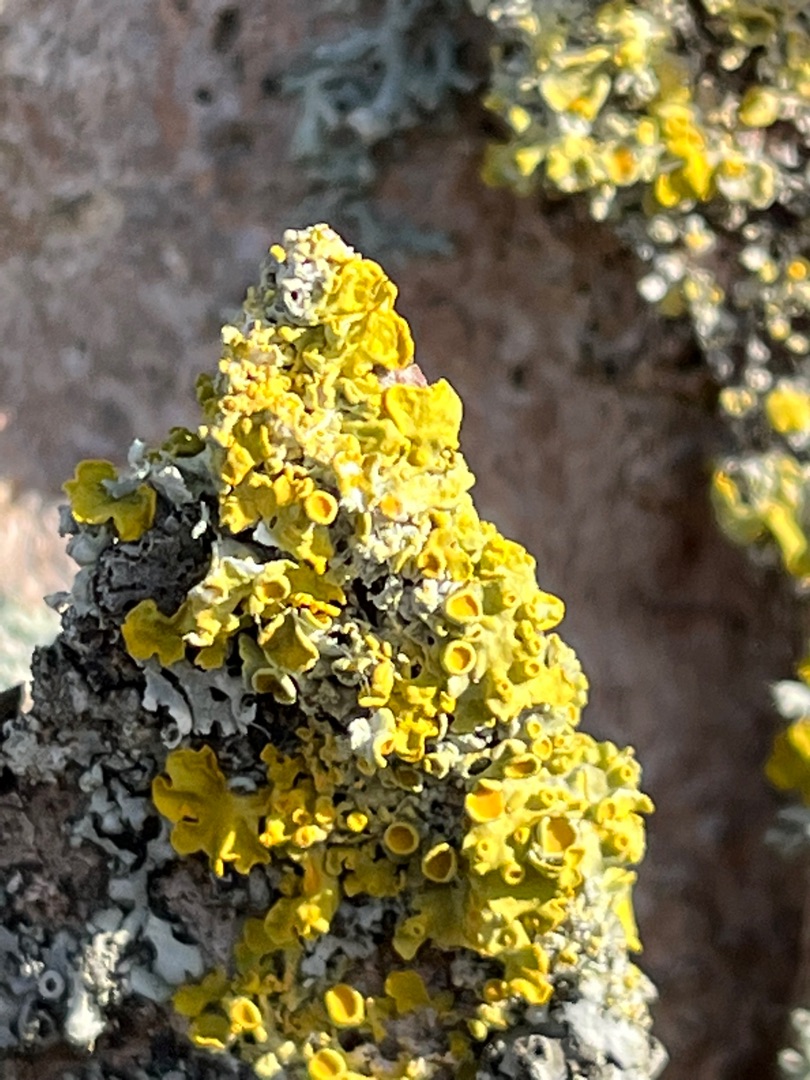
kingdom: Fungi
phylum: Ascomycota
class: Lecanoromycetes
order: Teloschistales
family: Teloschistaceae
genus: Xanthoria
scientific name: Xanthoria parietina
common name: Almindelig væggelav
